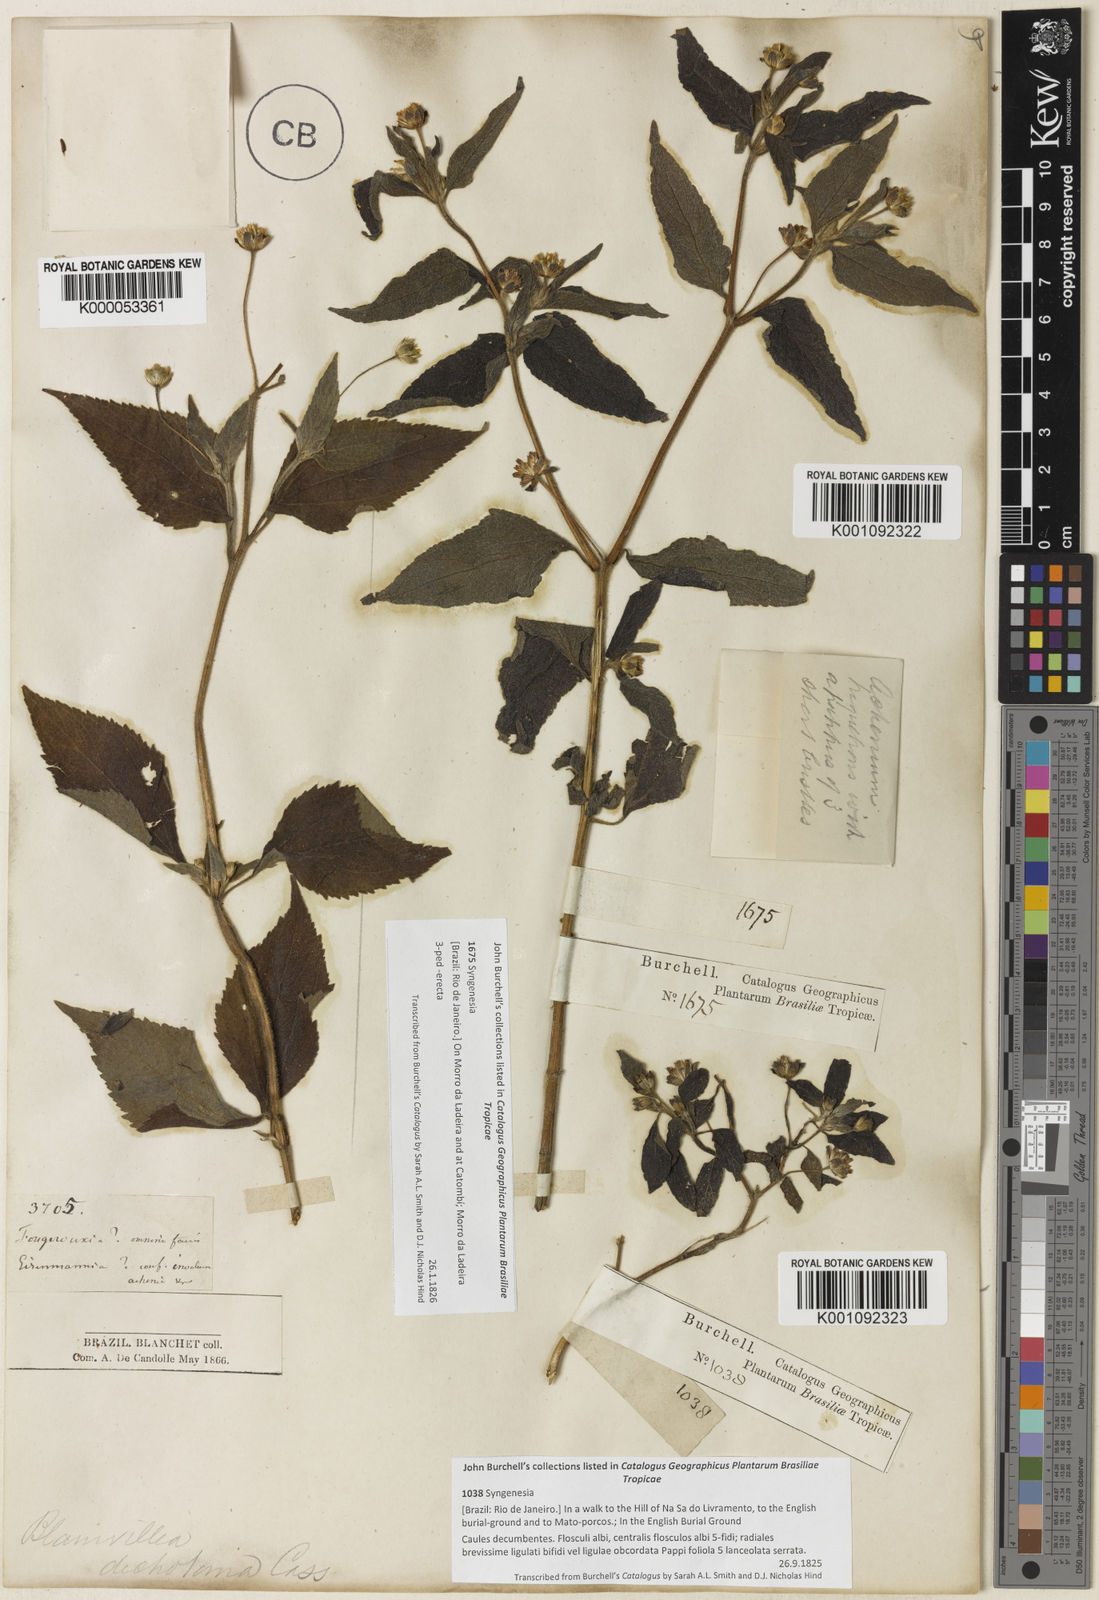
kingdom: Plantae
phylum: Tracheophyta
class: Magnoliopsida
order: Asterales
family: Asteraceae
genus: Blainvillea
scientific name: Blainvillea
